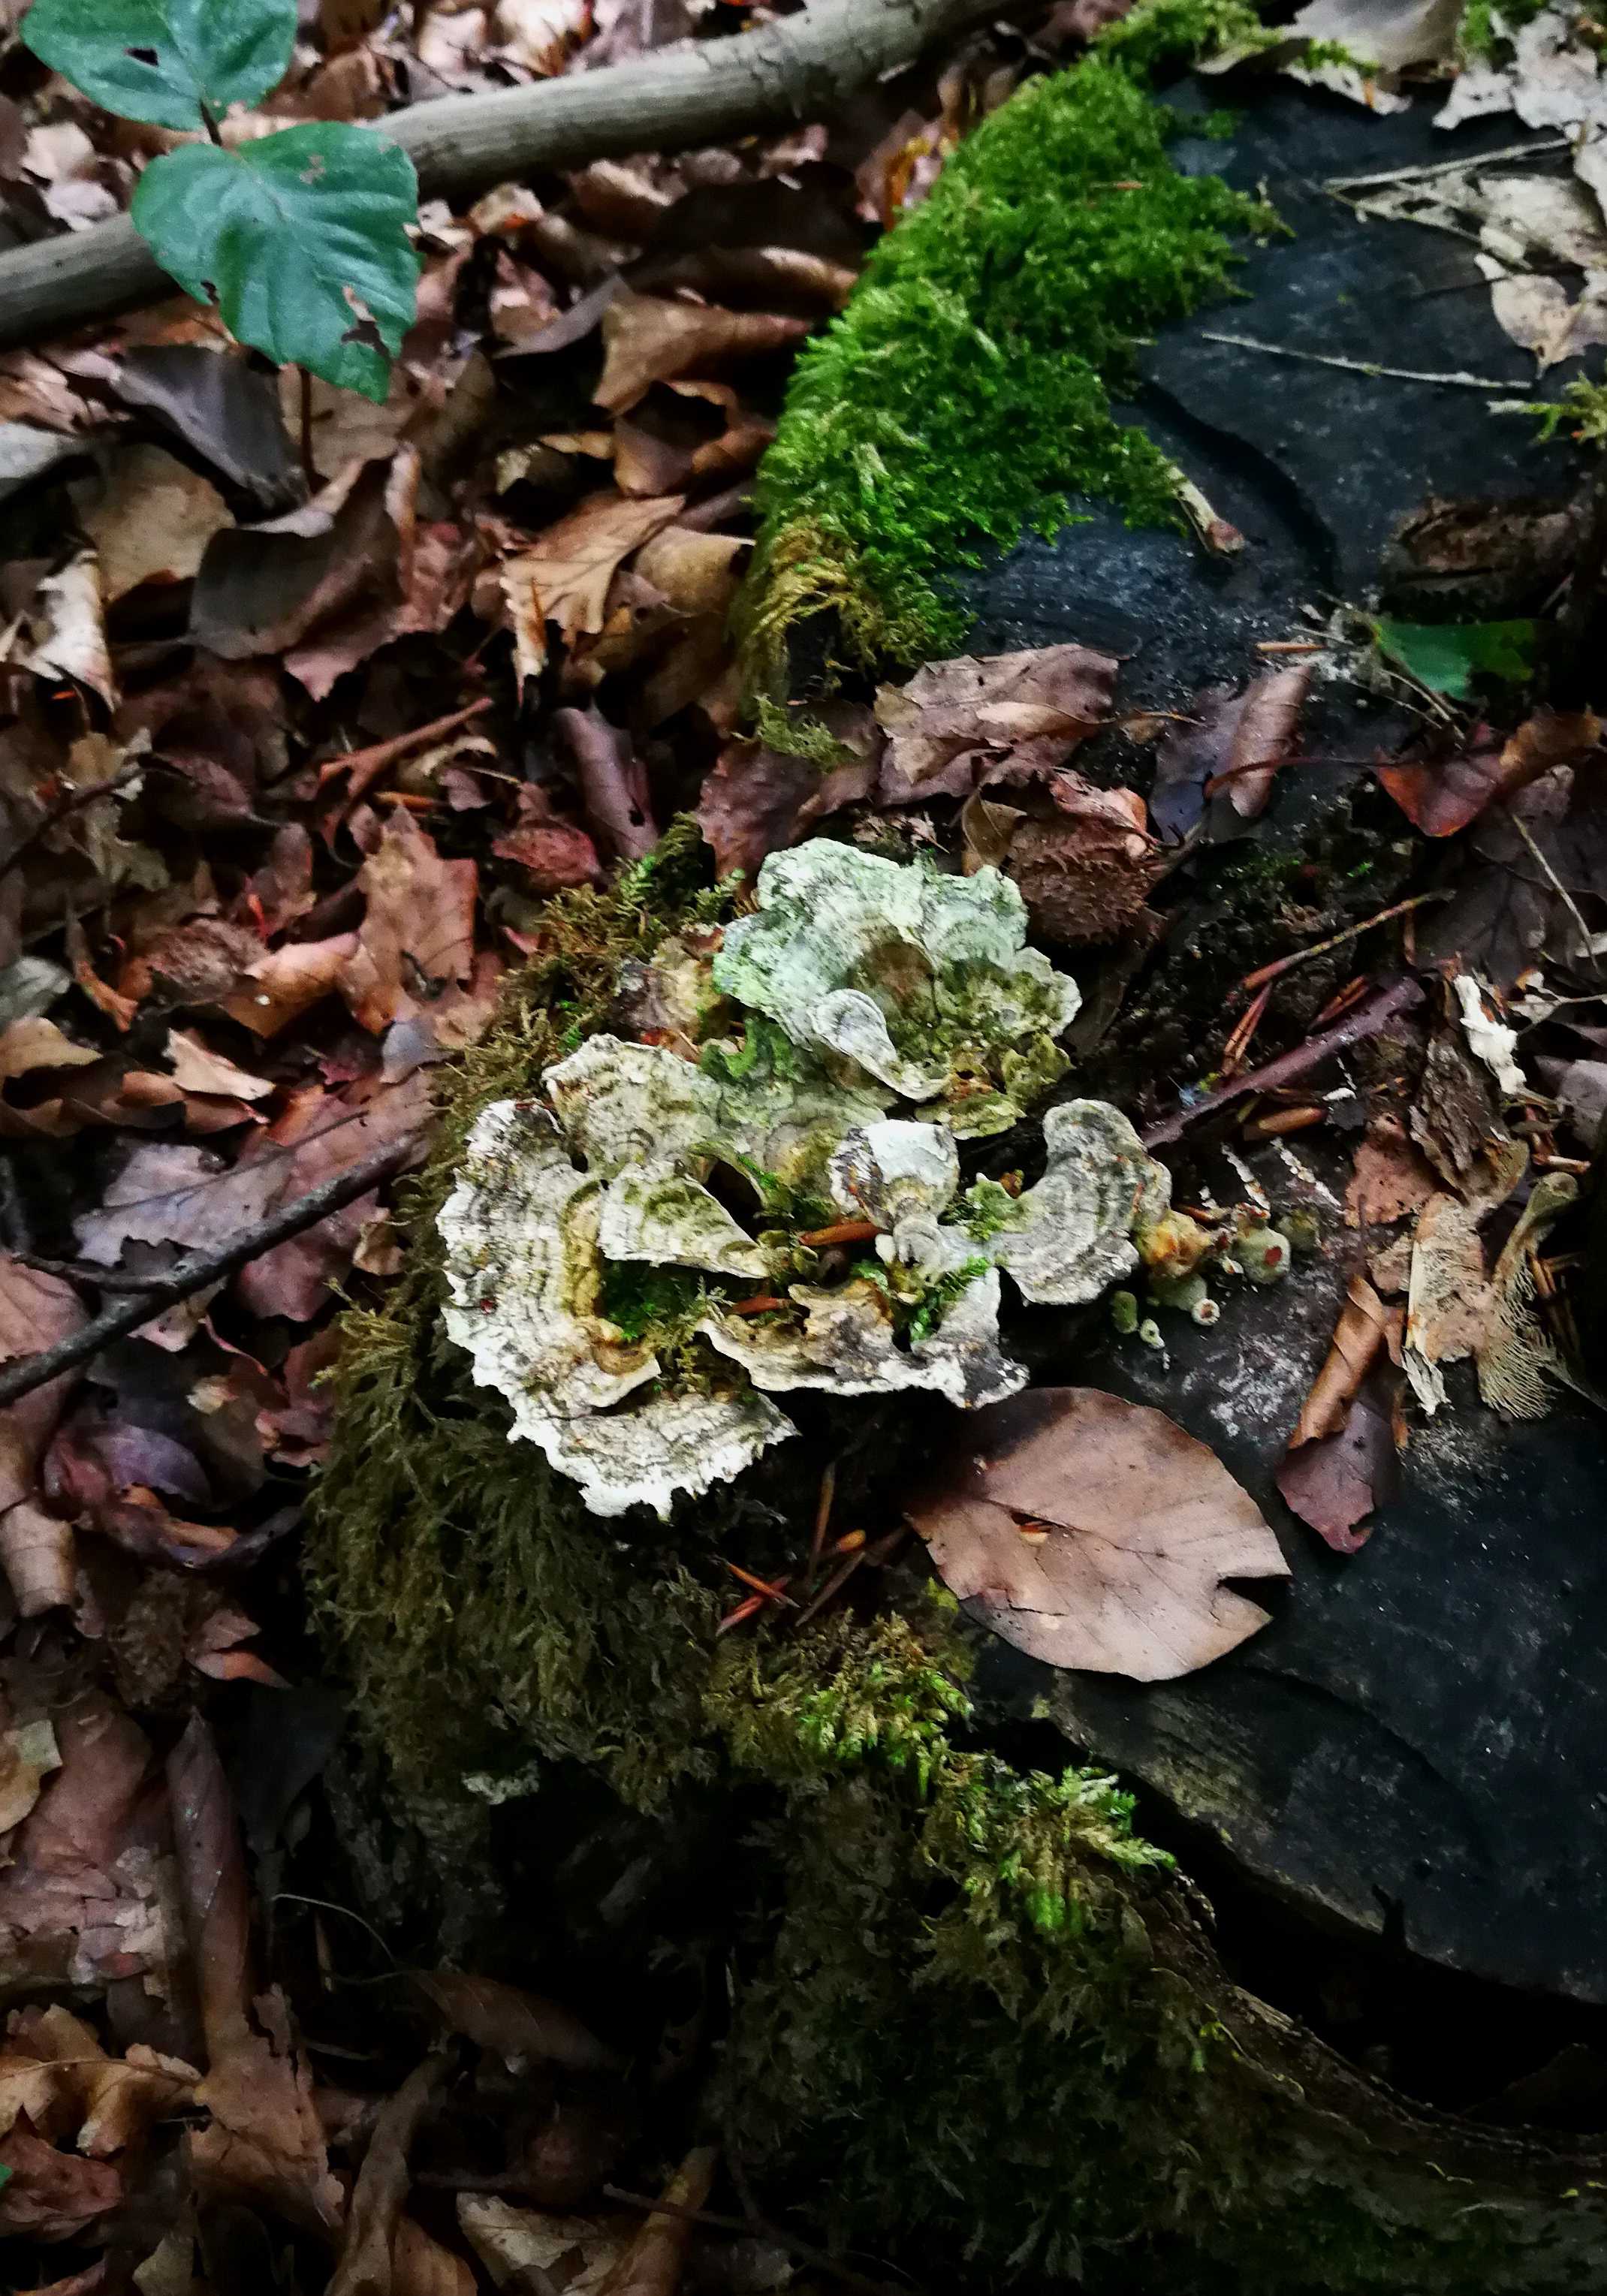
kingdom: Fungi
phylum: Basidiomycota
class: Agaricomycetes
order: Polyporales
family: Polyporaceae
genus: Trametes
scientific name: Trametes versicolor
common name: broget læderporesvamp
